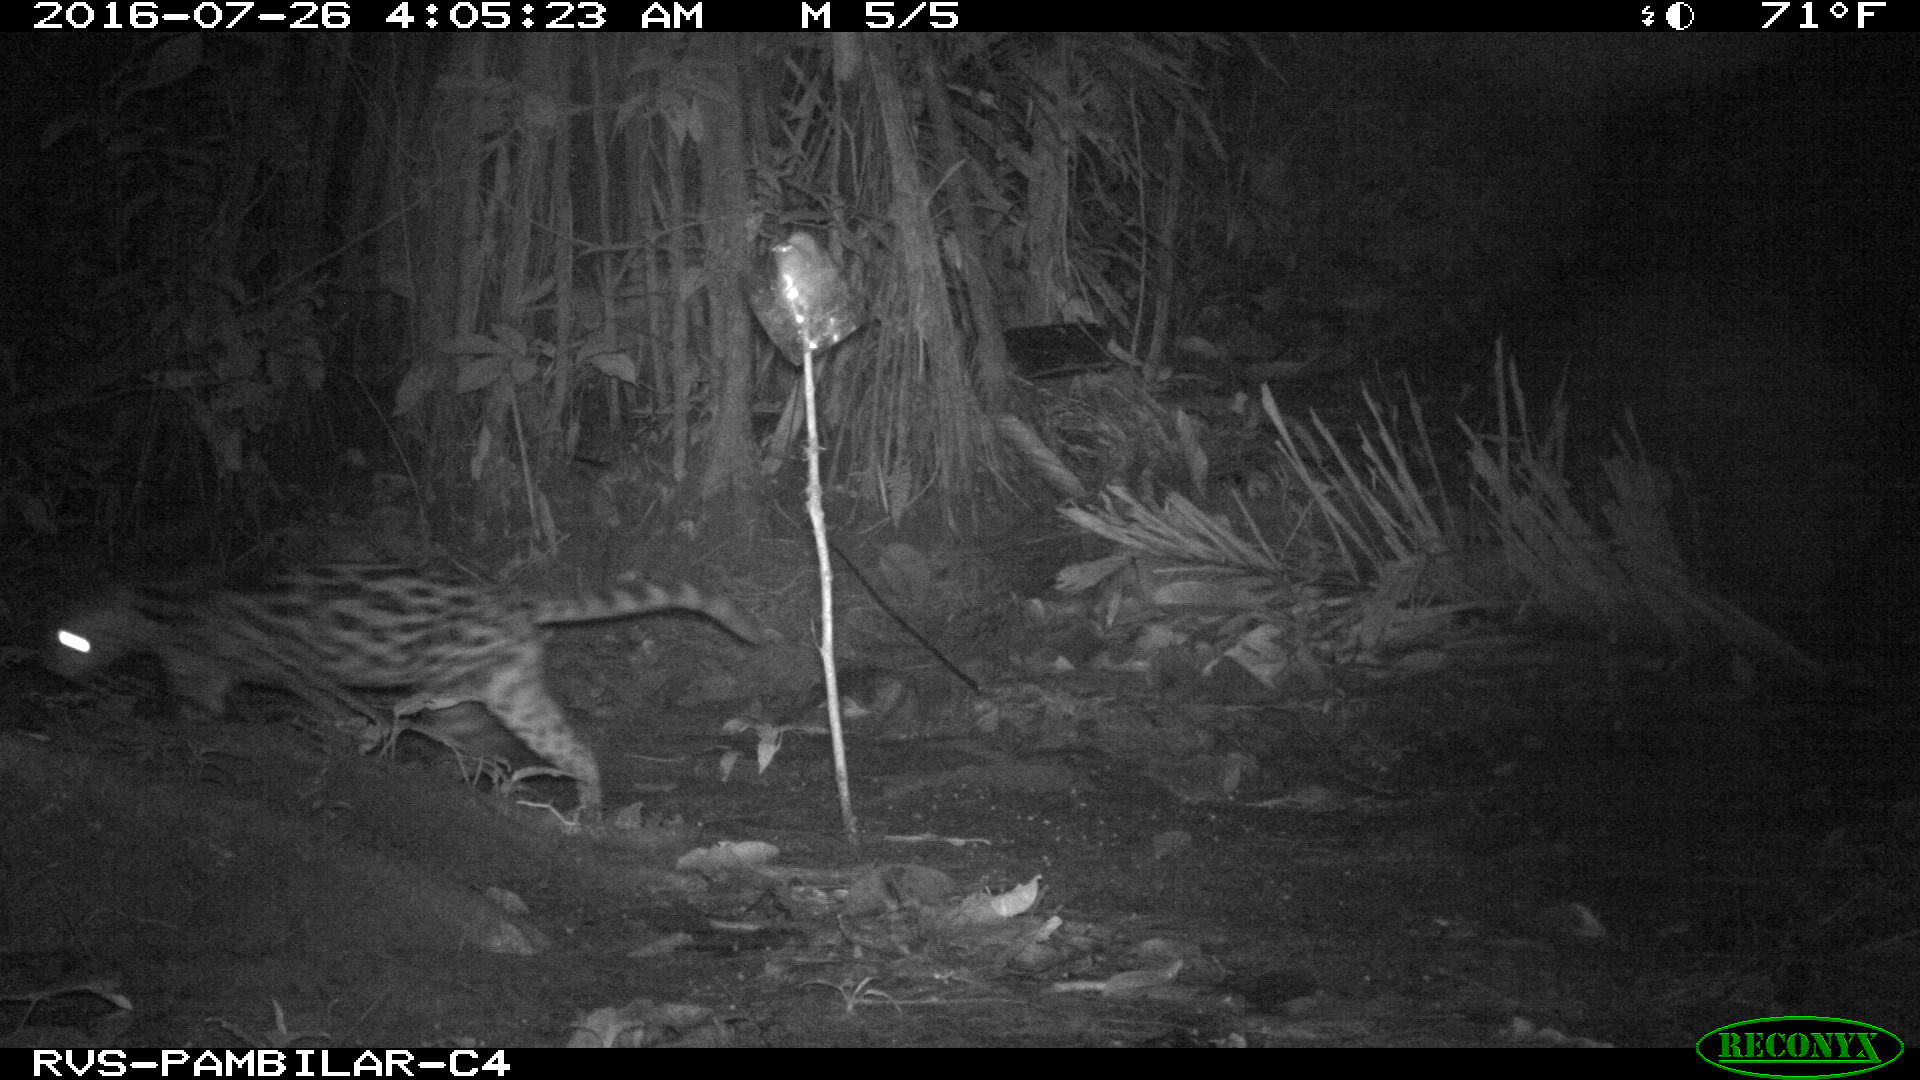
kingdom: Animalia
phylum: Chordata
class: Mammalia
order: Carnivora
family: Felidae
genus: Leopardus
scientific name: Leopardus pardalis
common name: Ocelot
